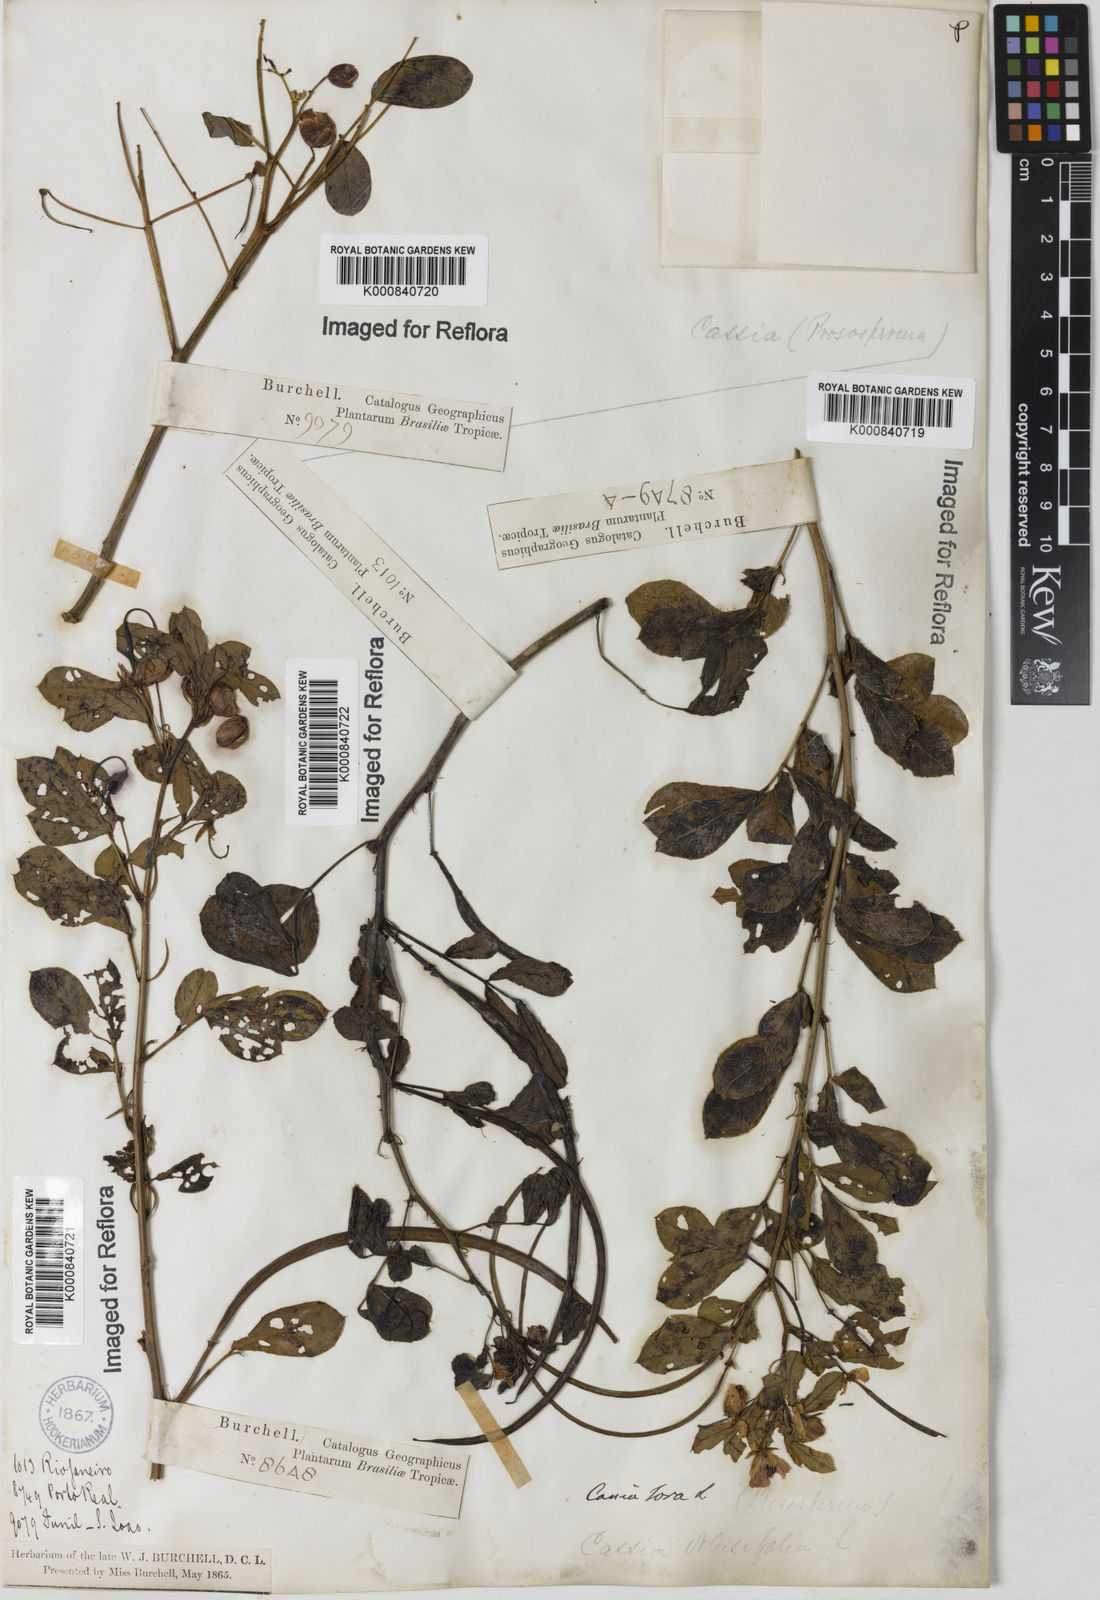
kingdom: Plantae
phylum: Tracheophyta
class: Magnoliopsida
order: Fabales
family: Fabaceae
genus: Senna
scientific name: Senna obtusifolia
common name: Java-bean
